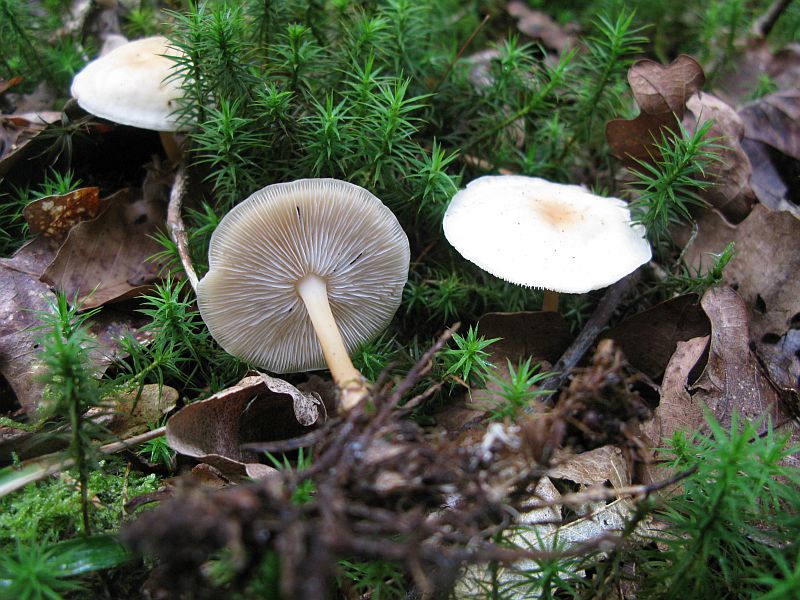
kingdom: Fungi
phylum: Basidiomycota
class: Agaricomycetes
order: Agaricales
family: Omphalotaceae
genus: Gymnopus
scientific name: Gymnopus dryophilus
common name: løv-fladhat
